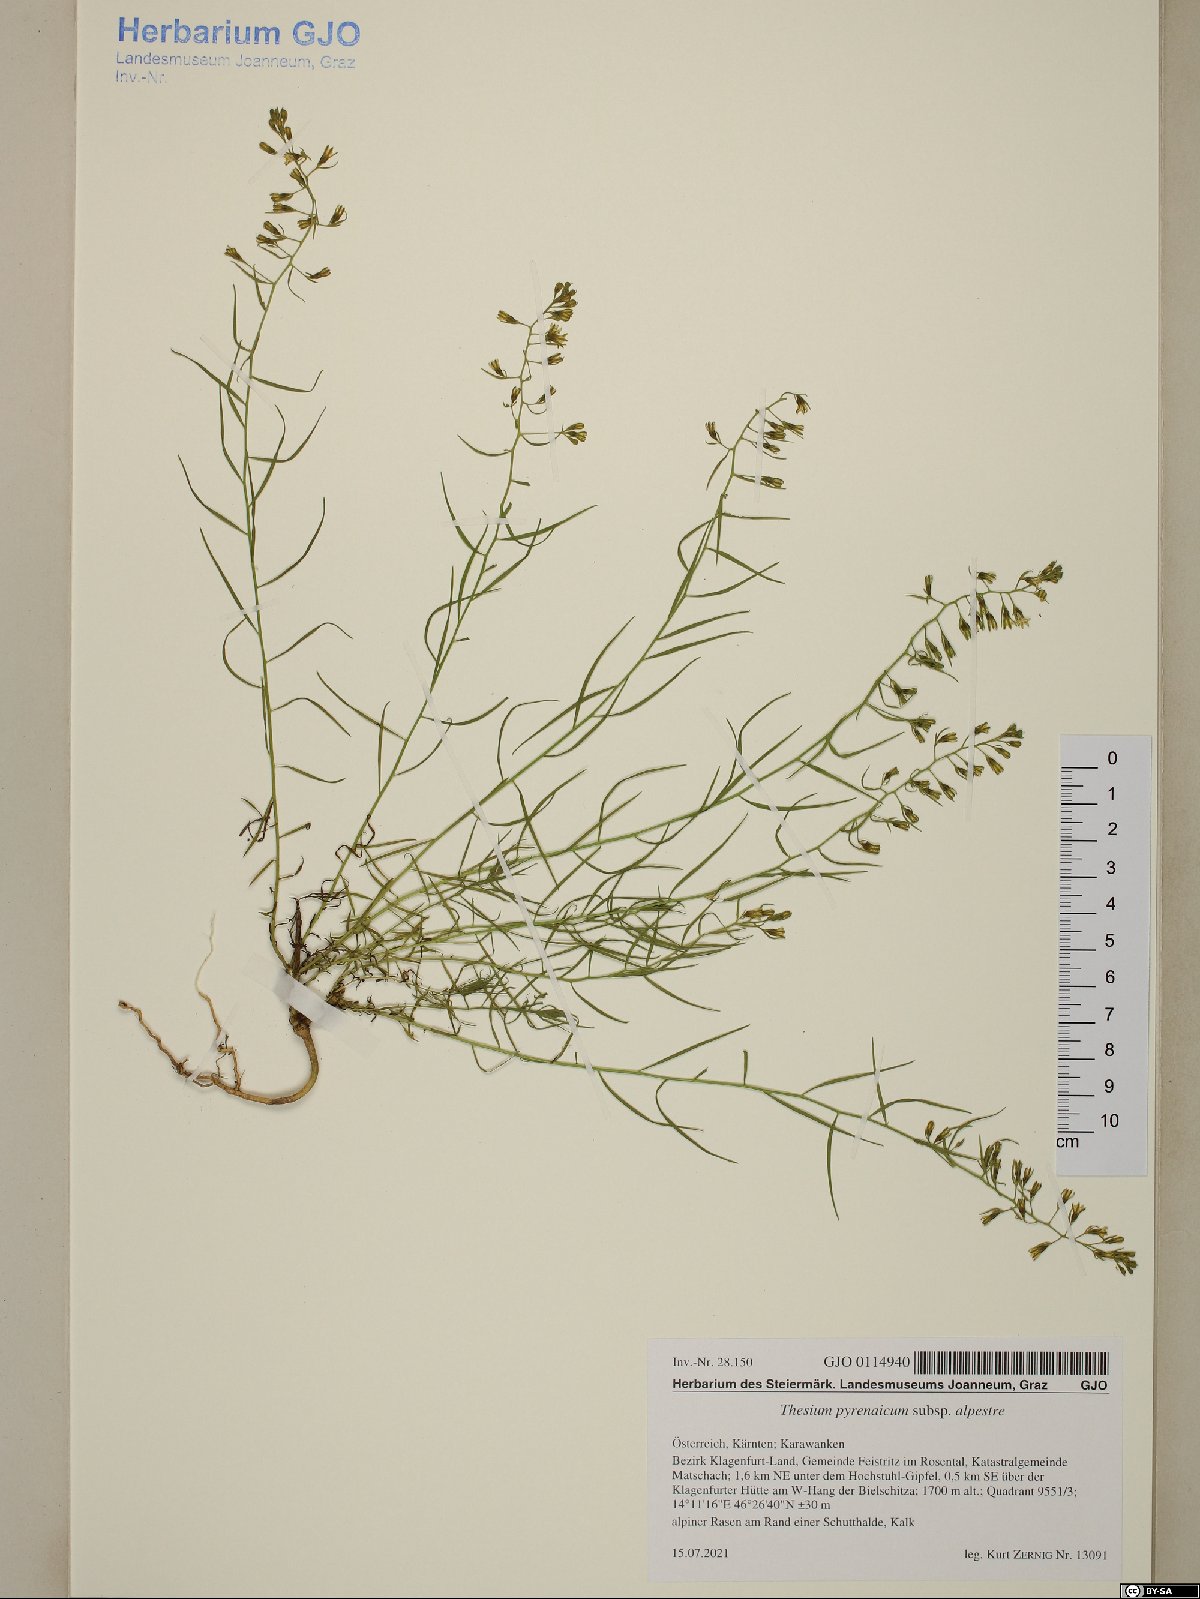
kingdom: Plantae
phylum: Tracheophyta
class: Magnoliopsida
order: Santalales
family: Thesiaceae
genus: Thesium
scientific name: Thesium pyrenaicum
